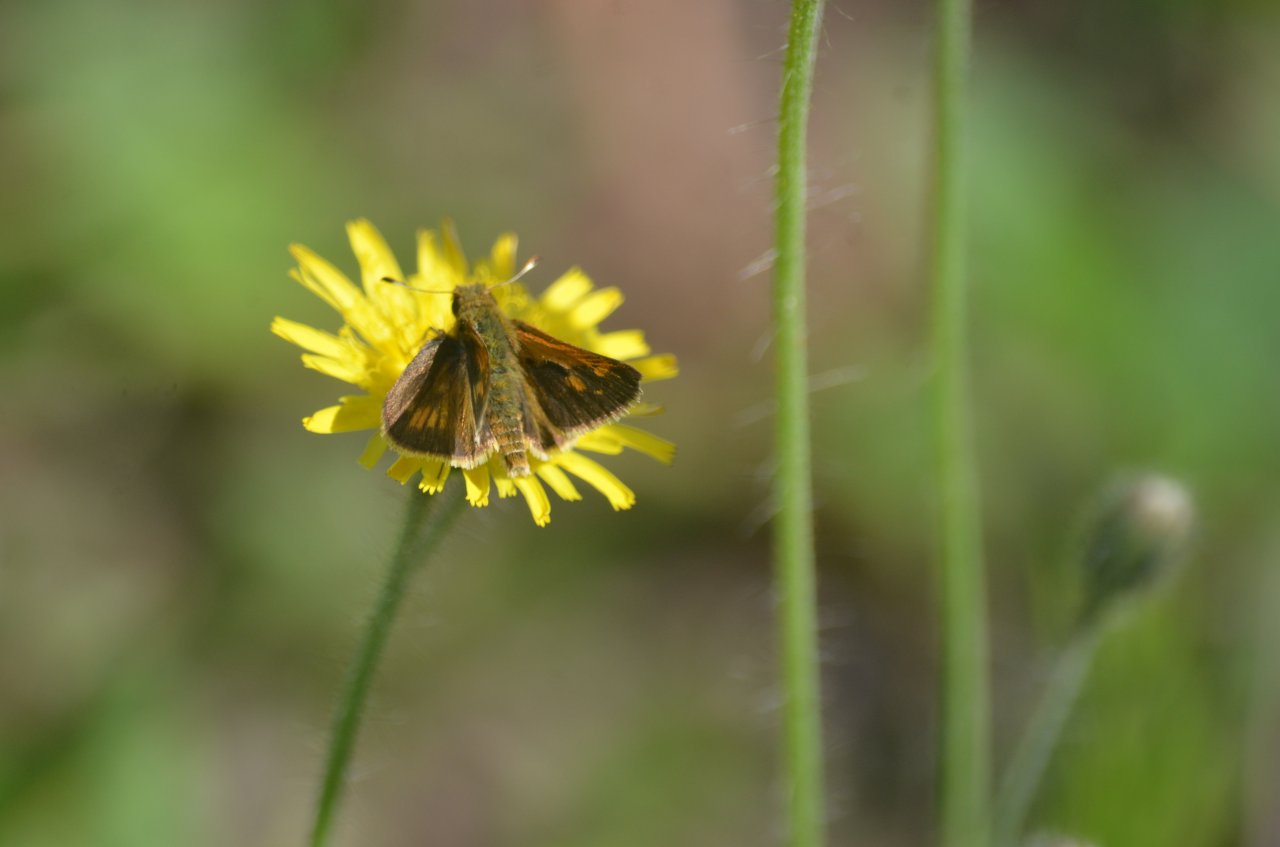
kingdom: Animalia
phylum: Arthropoda
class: Insecta
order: Lepidoptera
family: Hesperiidae
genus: Polites
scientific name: Polites coras
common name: Peck's Skipper
